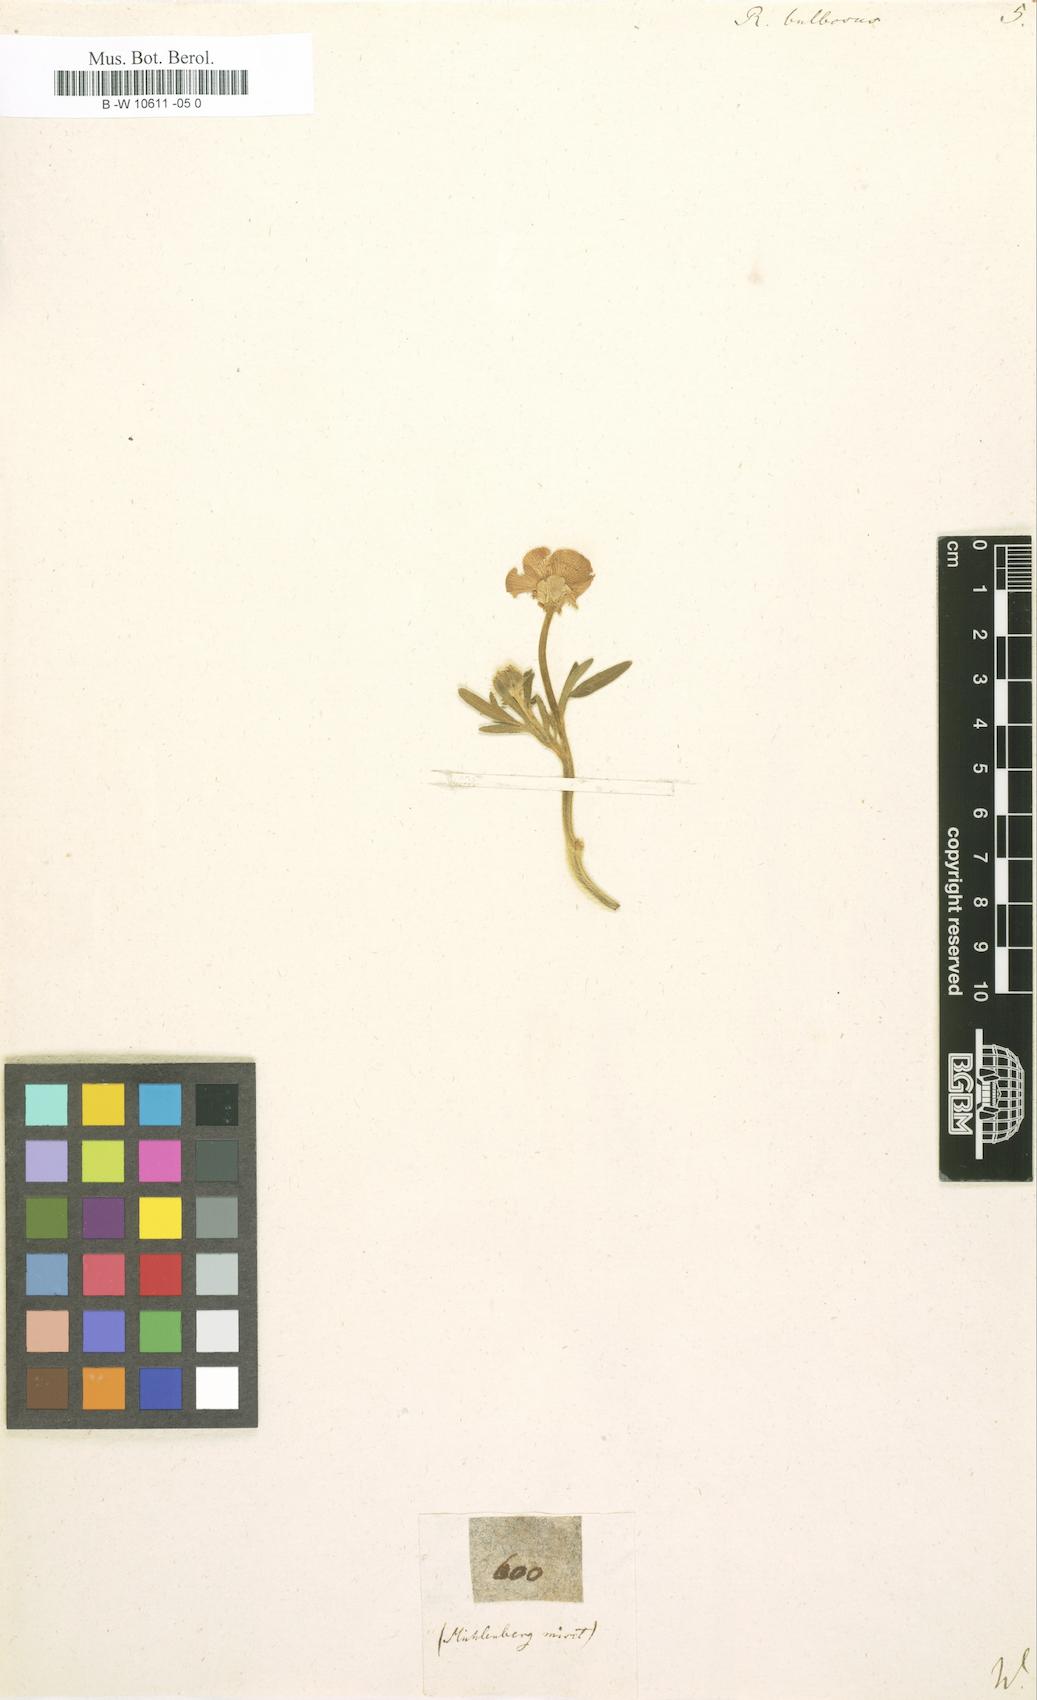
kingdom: Plantae
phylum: Tracheophyta
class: Magnoliopsida
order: Ranunculales
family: Ranunculaceae
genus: Ranunculus
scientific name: Ranunculus bulbosus
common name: Bulbous buttercup
